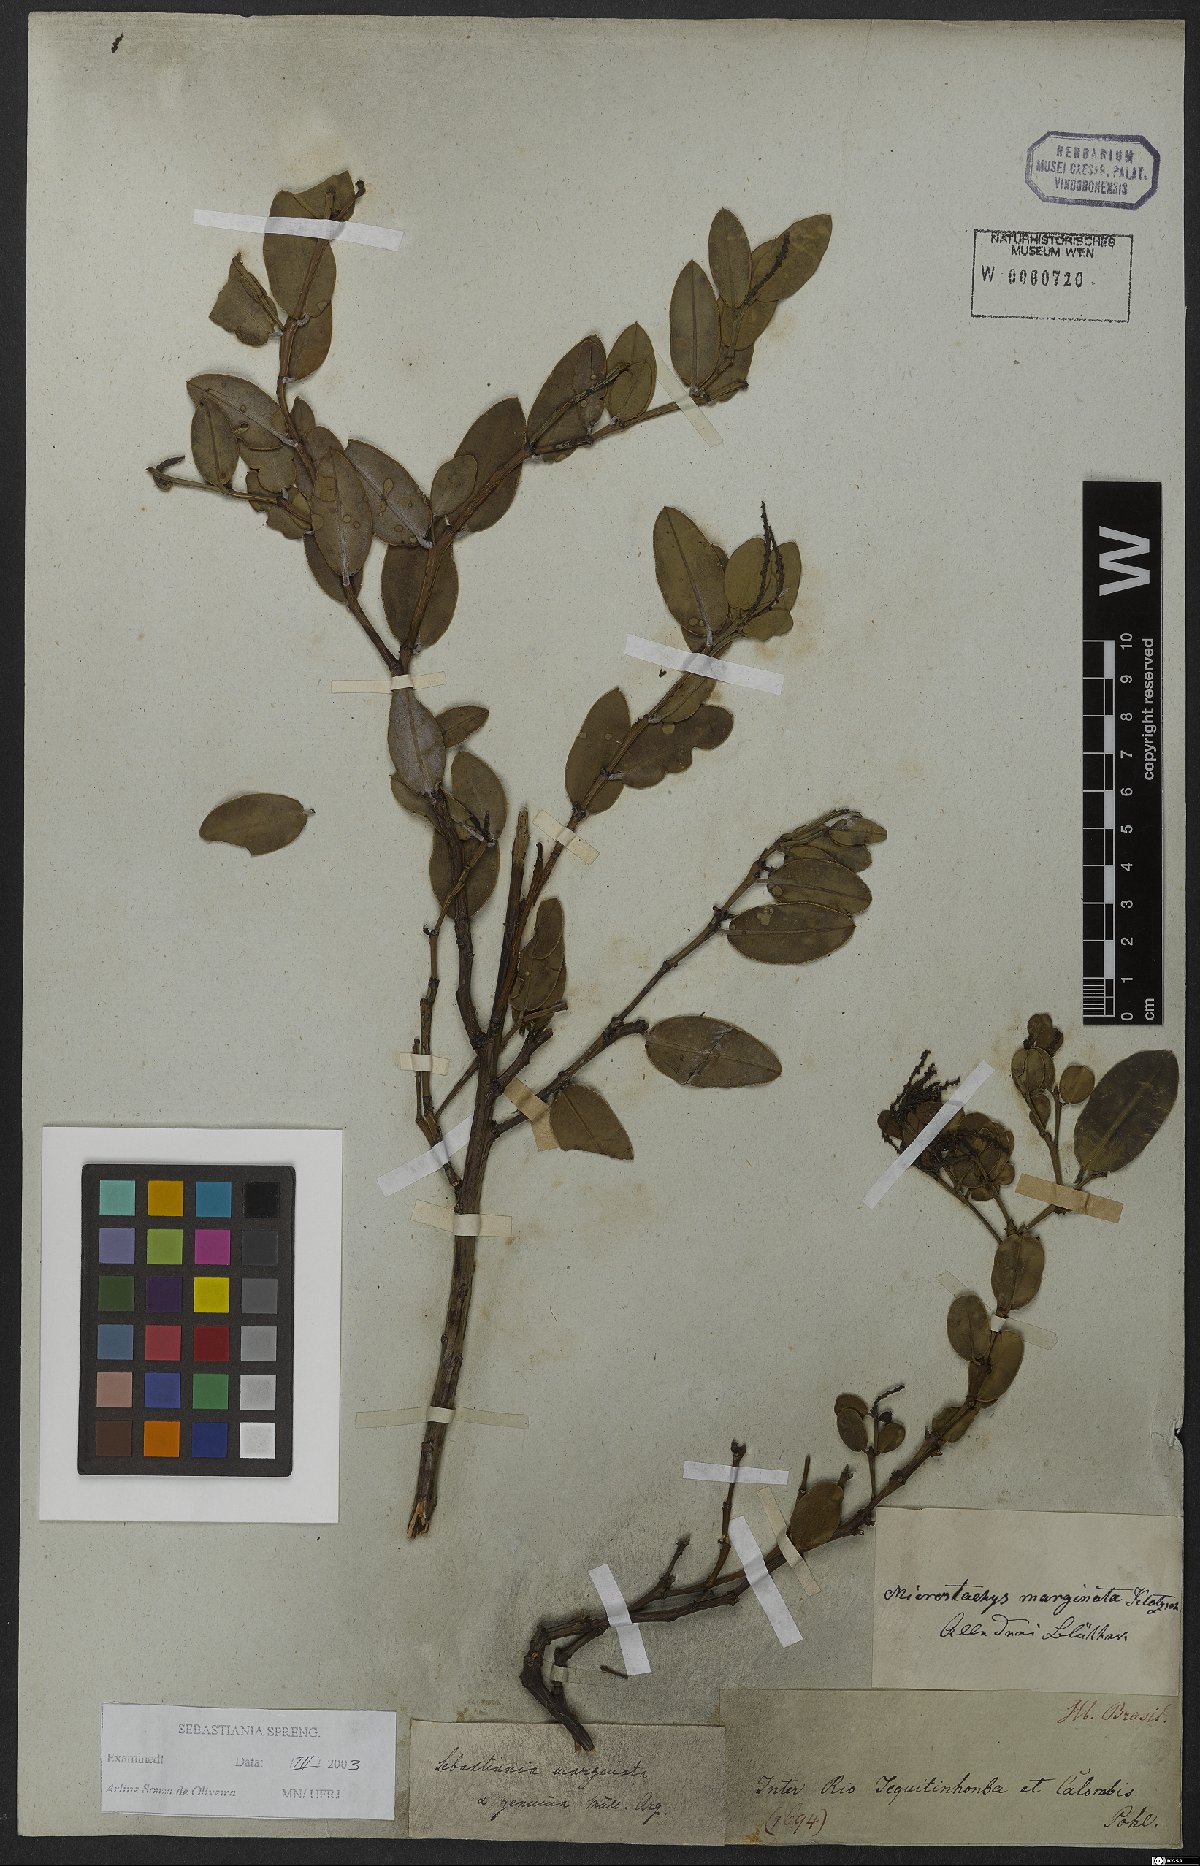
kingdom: Plantae
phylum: Tracheophyta
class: Magnoliopsida
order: Malpighiales
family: Euphorbiaceae
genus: Microstachys
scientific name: Microstachys marginata
